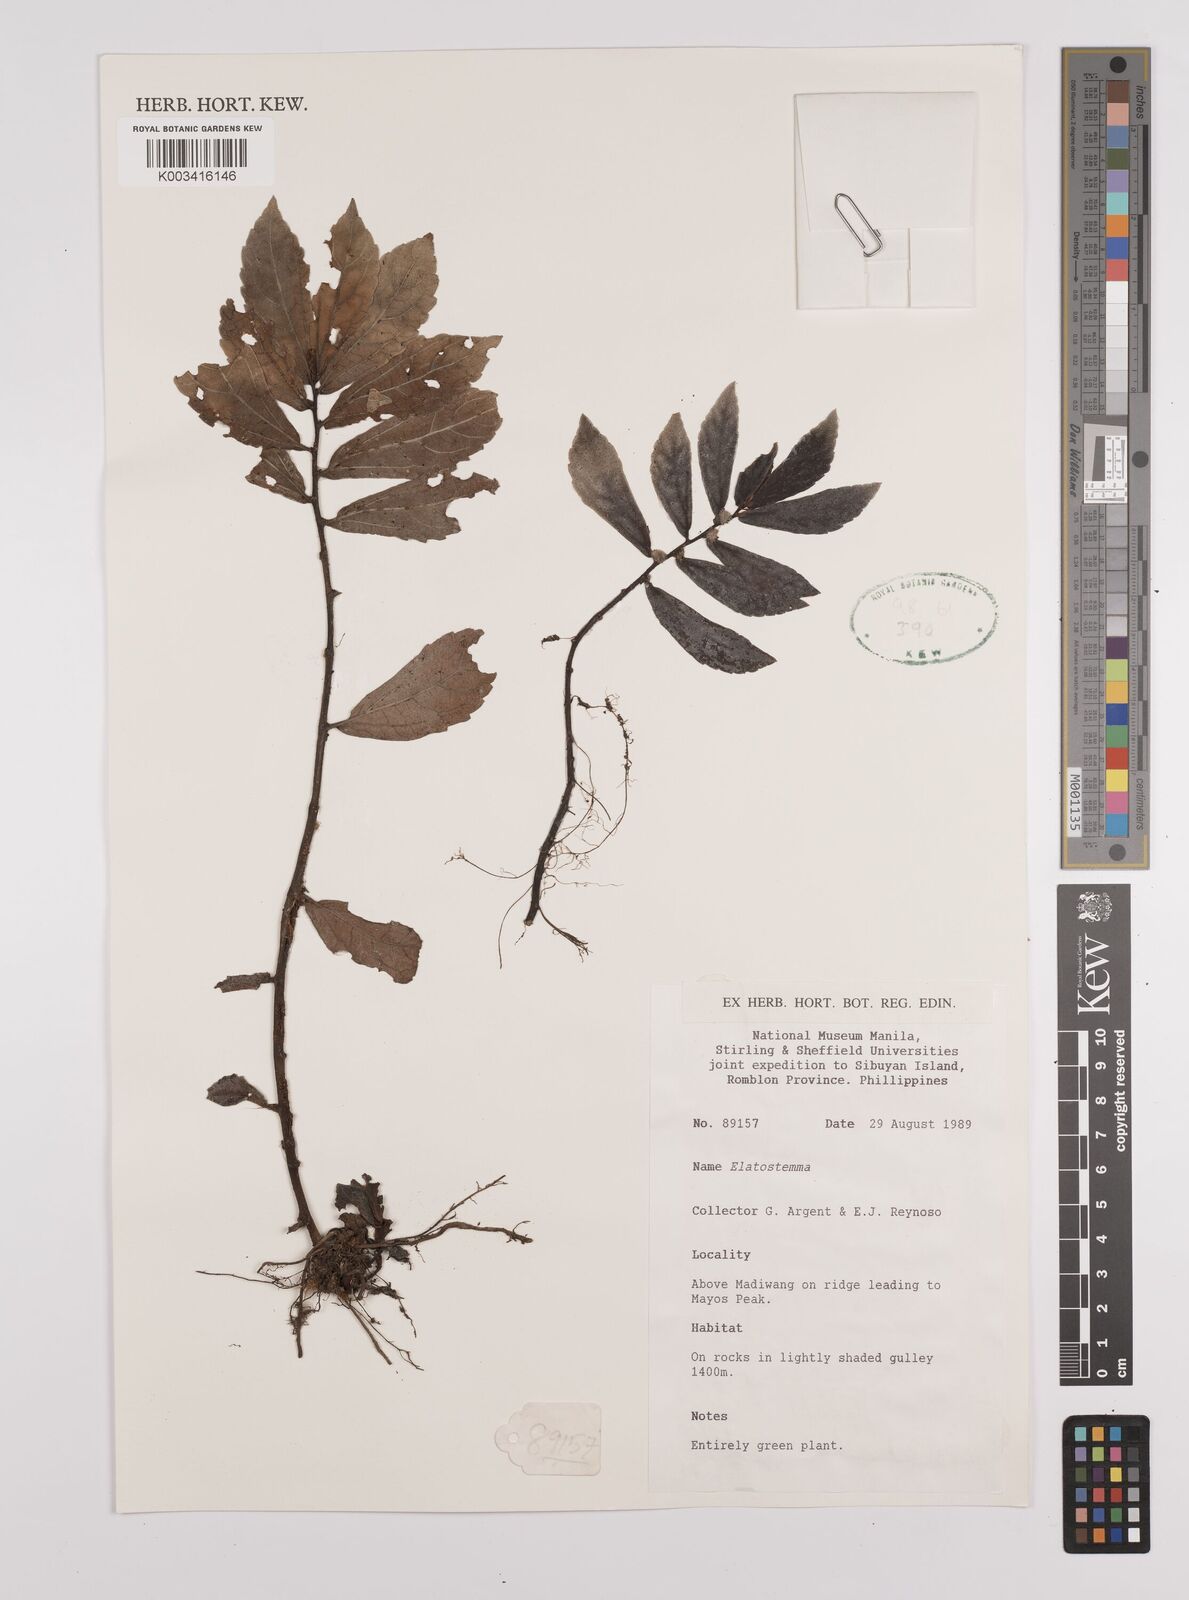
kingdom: Plantae
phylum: Tracheophyta
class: Magnoliopsida
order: Rosales
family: Urticaceae
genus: Elatostema
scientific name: Elatostema
